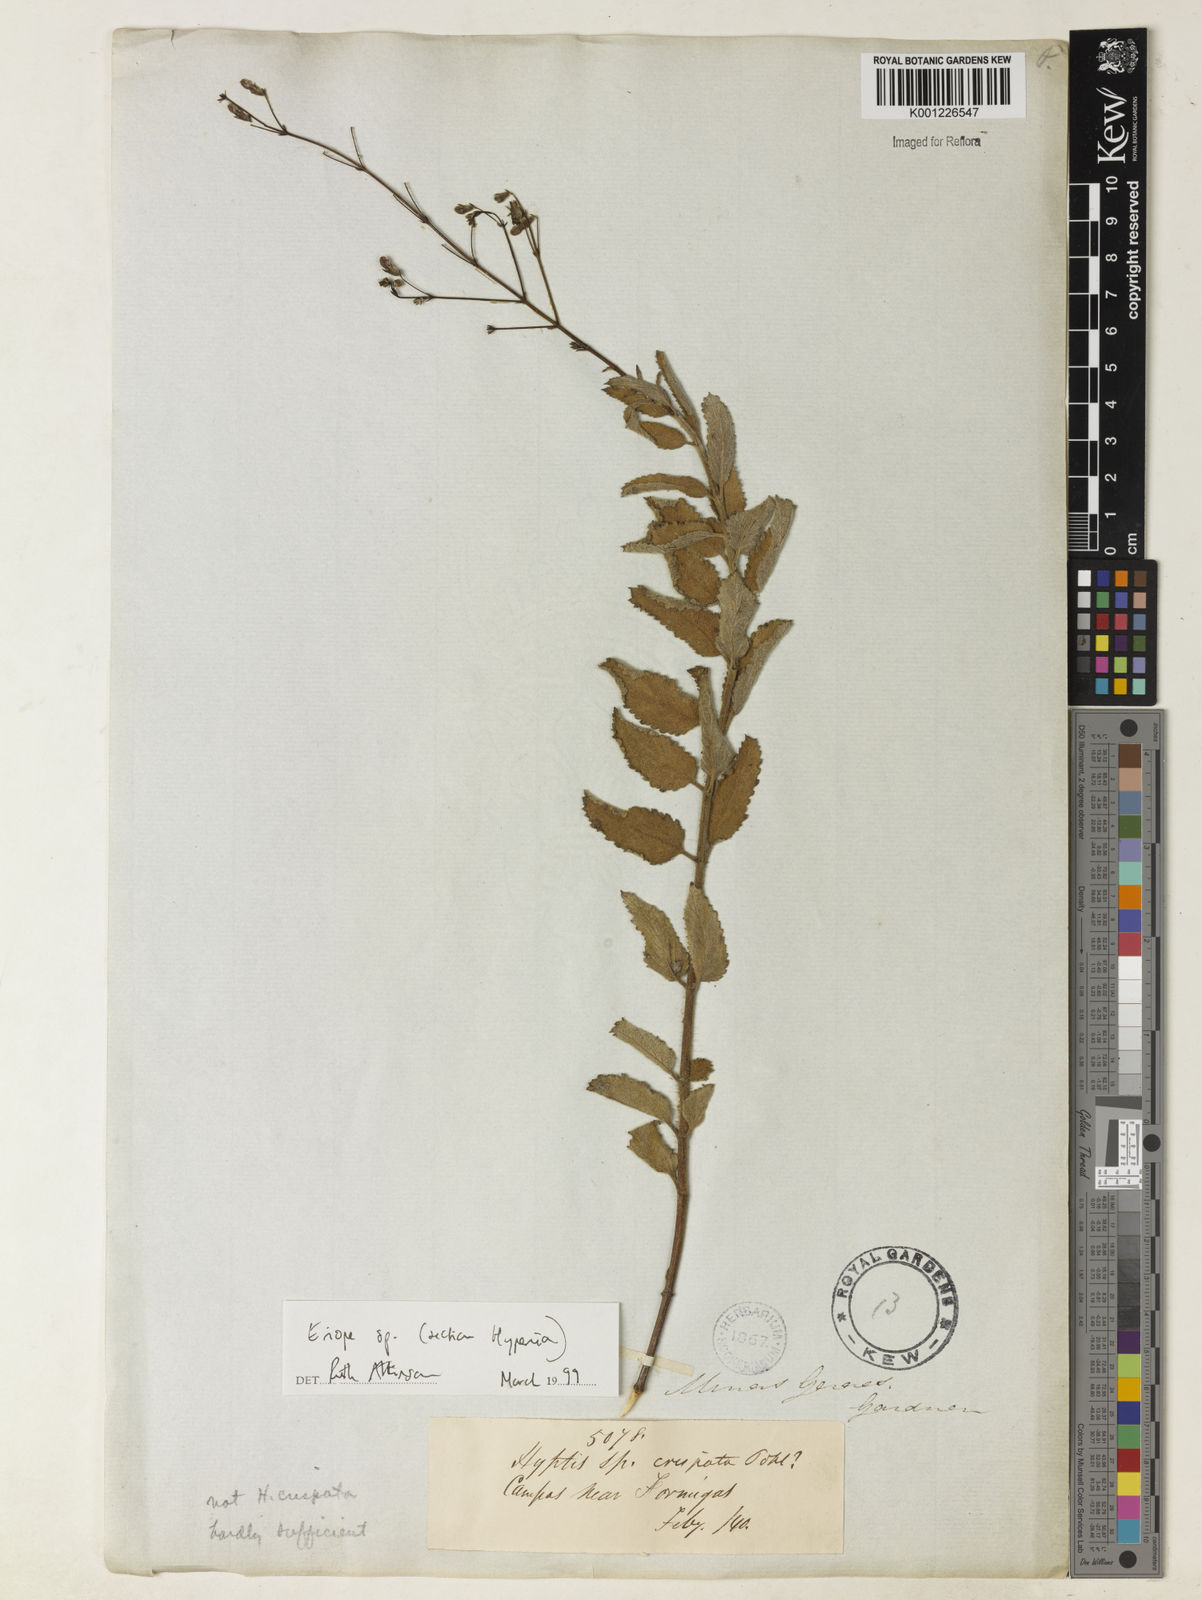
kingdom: Plantae
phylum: Tracheophyta
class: Magnoliopsida
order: Lamiales
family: Lamiaceae
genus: Hypenia
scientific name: Hypenia
